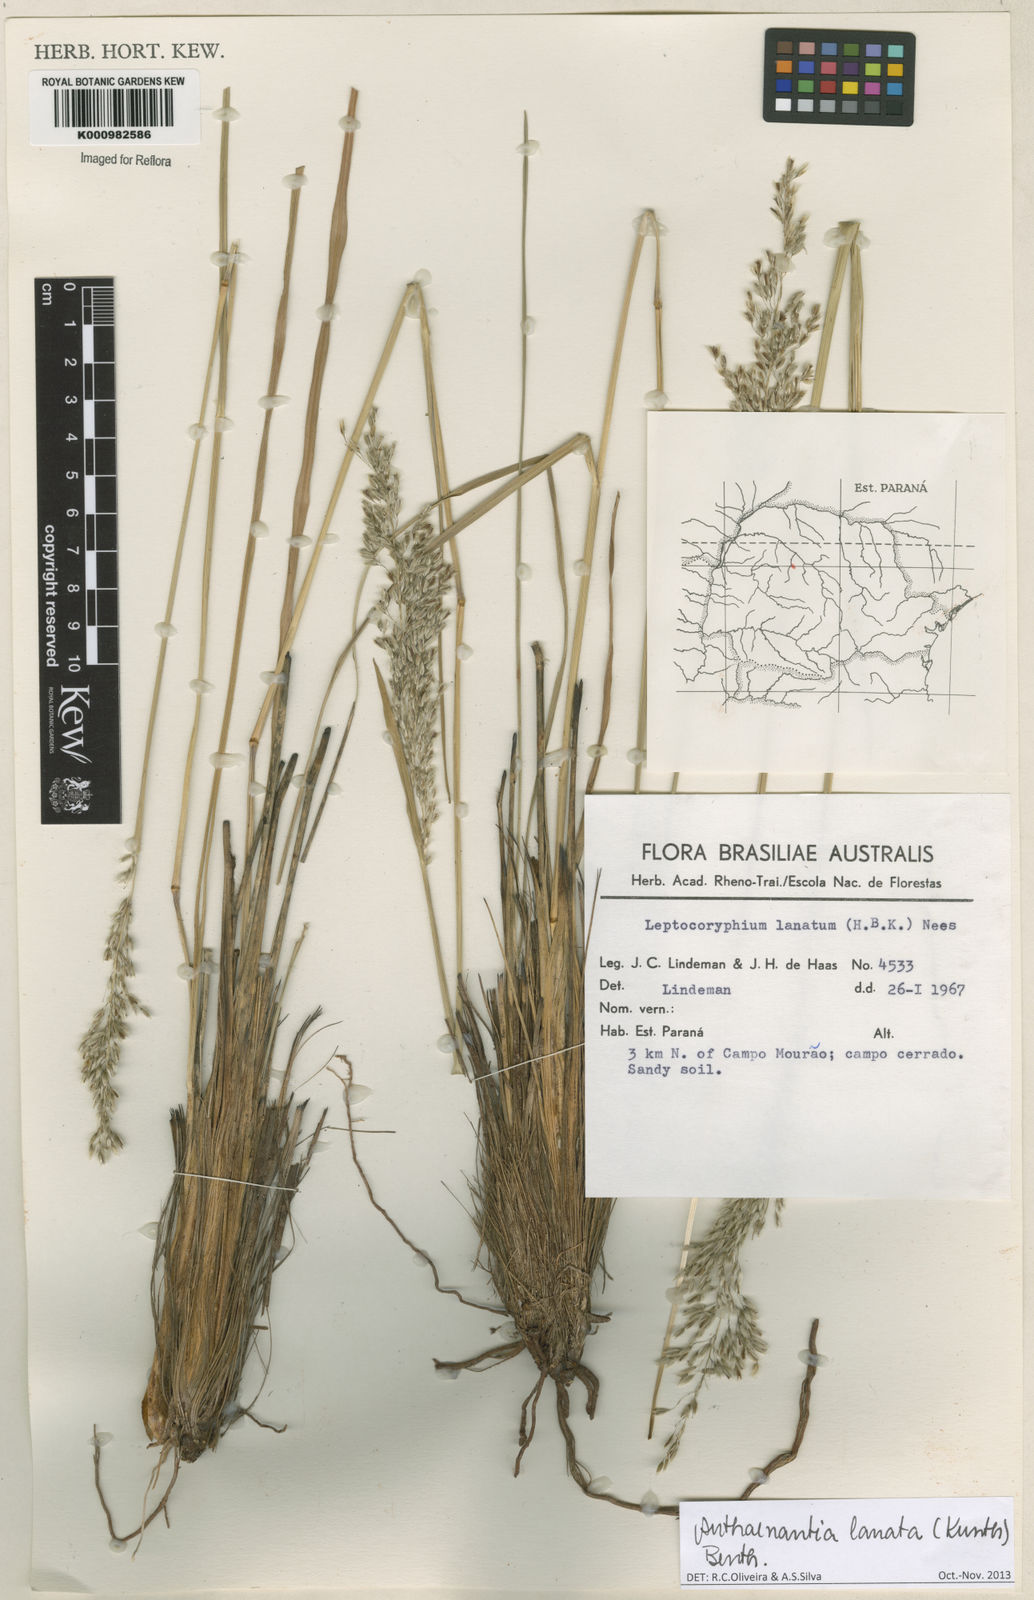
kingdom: Plantae
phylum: Tracheophyta
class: Liliopsida
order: Poales
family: Poaceae
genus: Anthenantia
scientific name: Anthenantia lanata
